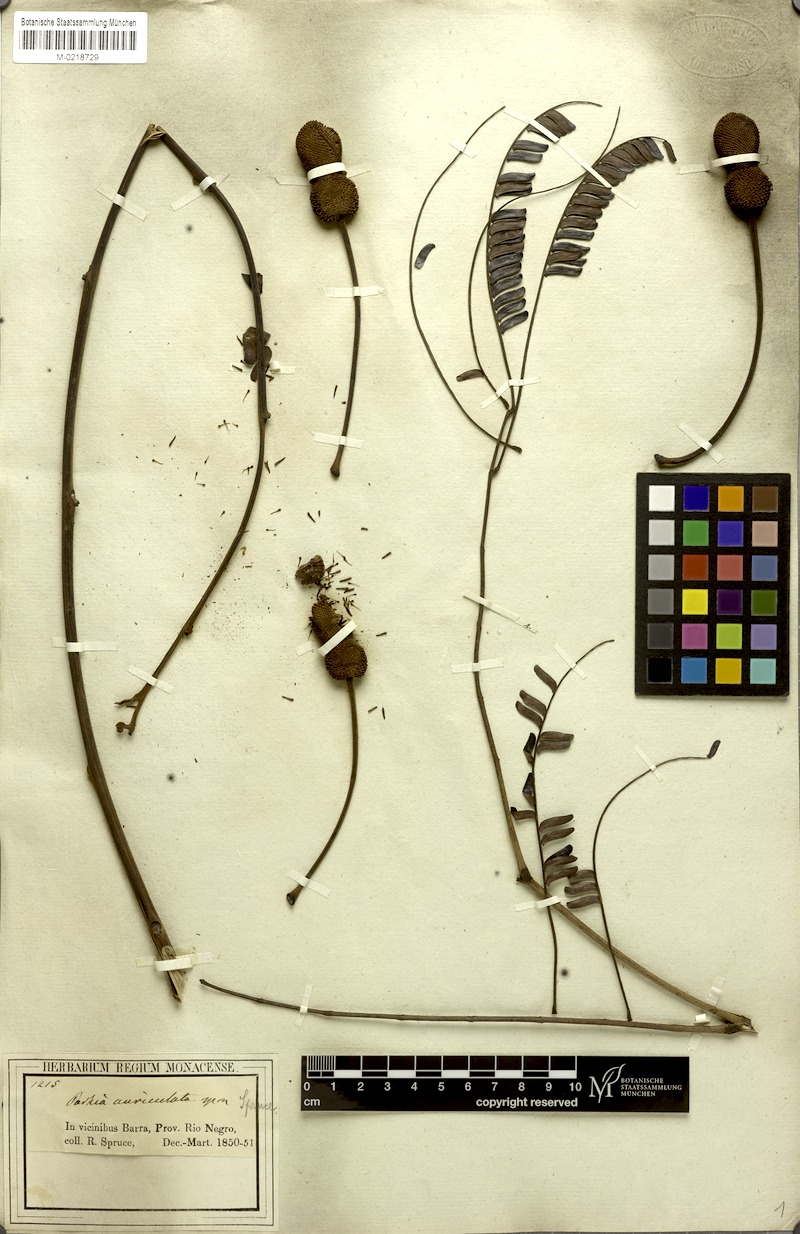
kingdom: Plantae
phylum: Tracheophyta
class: Magnoliopsida
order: Fabales
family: Fabaceae
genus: Parkia
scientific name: Parkia discolor
